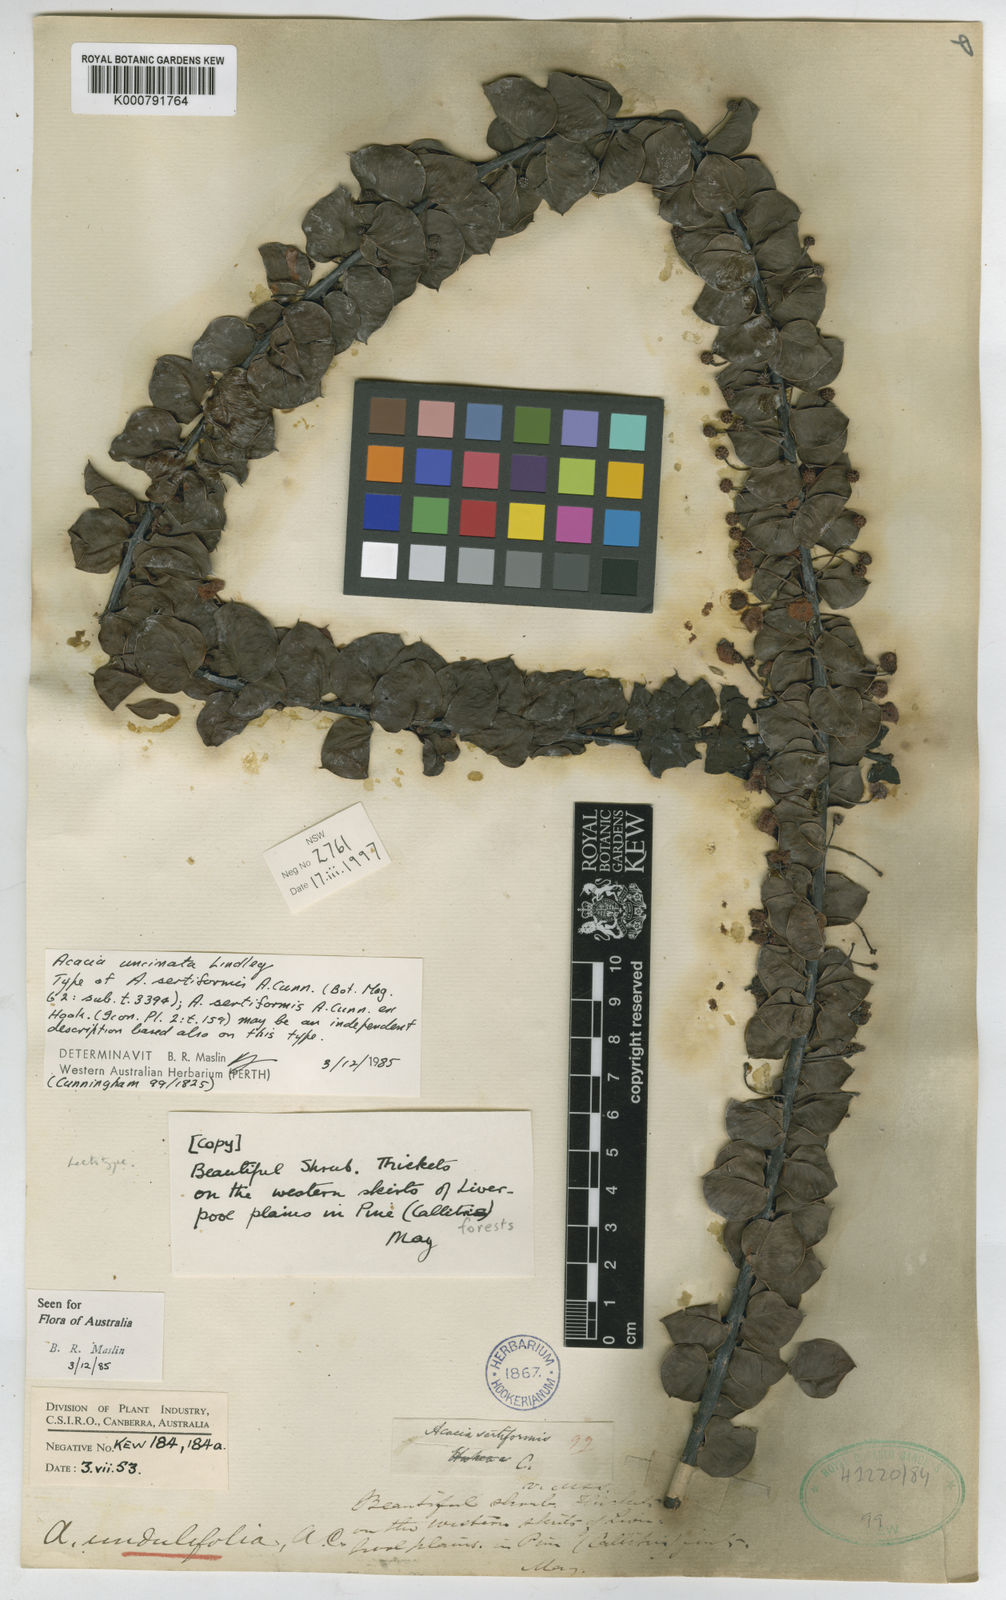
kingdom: Plantae
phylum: Tracheophyta
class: Magnoliopsida
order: Fabales
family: Fabaceae
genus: Acacia
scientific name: Acacia undulifolia
